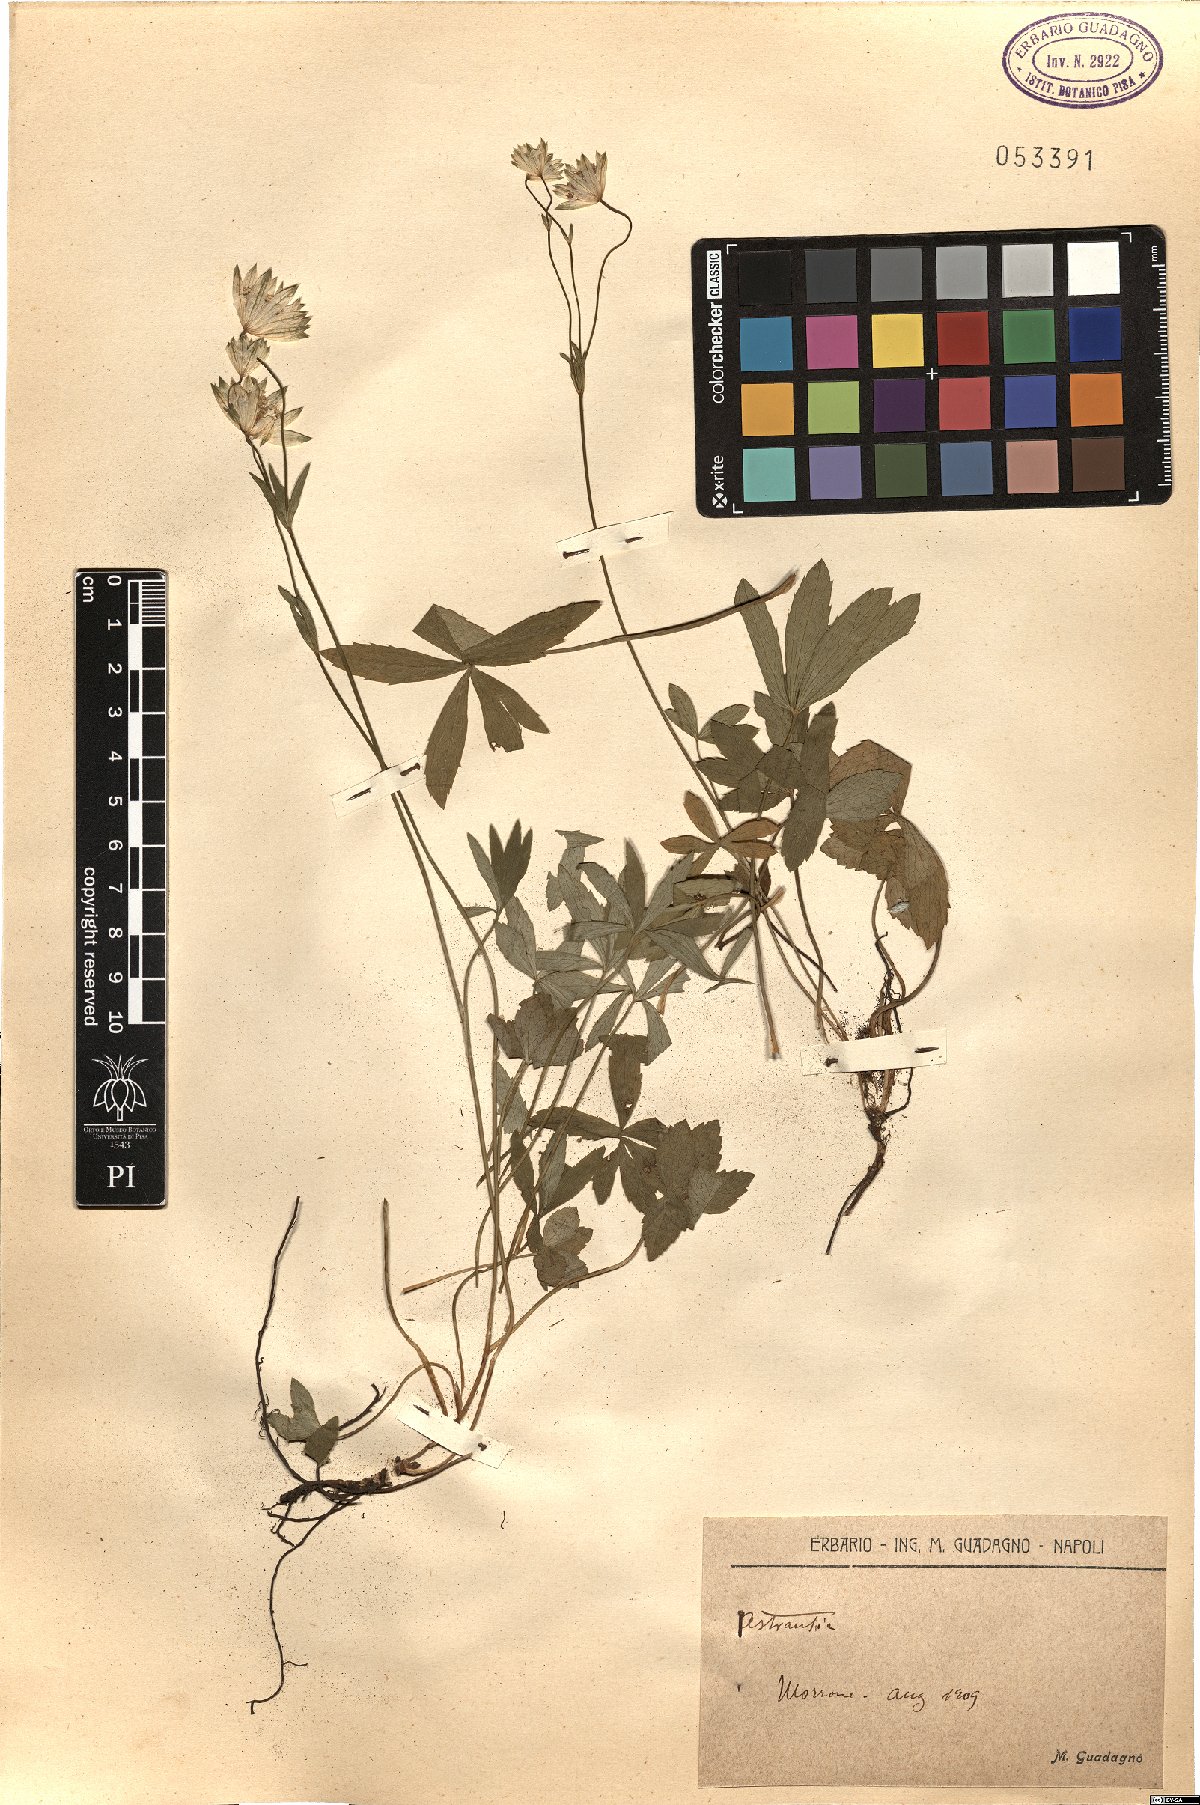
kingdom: Plantae
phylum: Tracheophyta
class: Magnoliopsida
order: Apiales
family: Apiaceae
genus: Astrantia
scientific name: Astrantia
